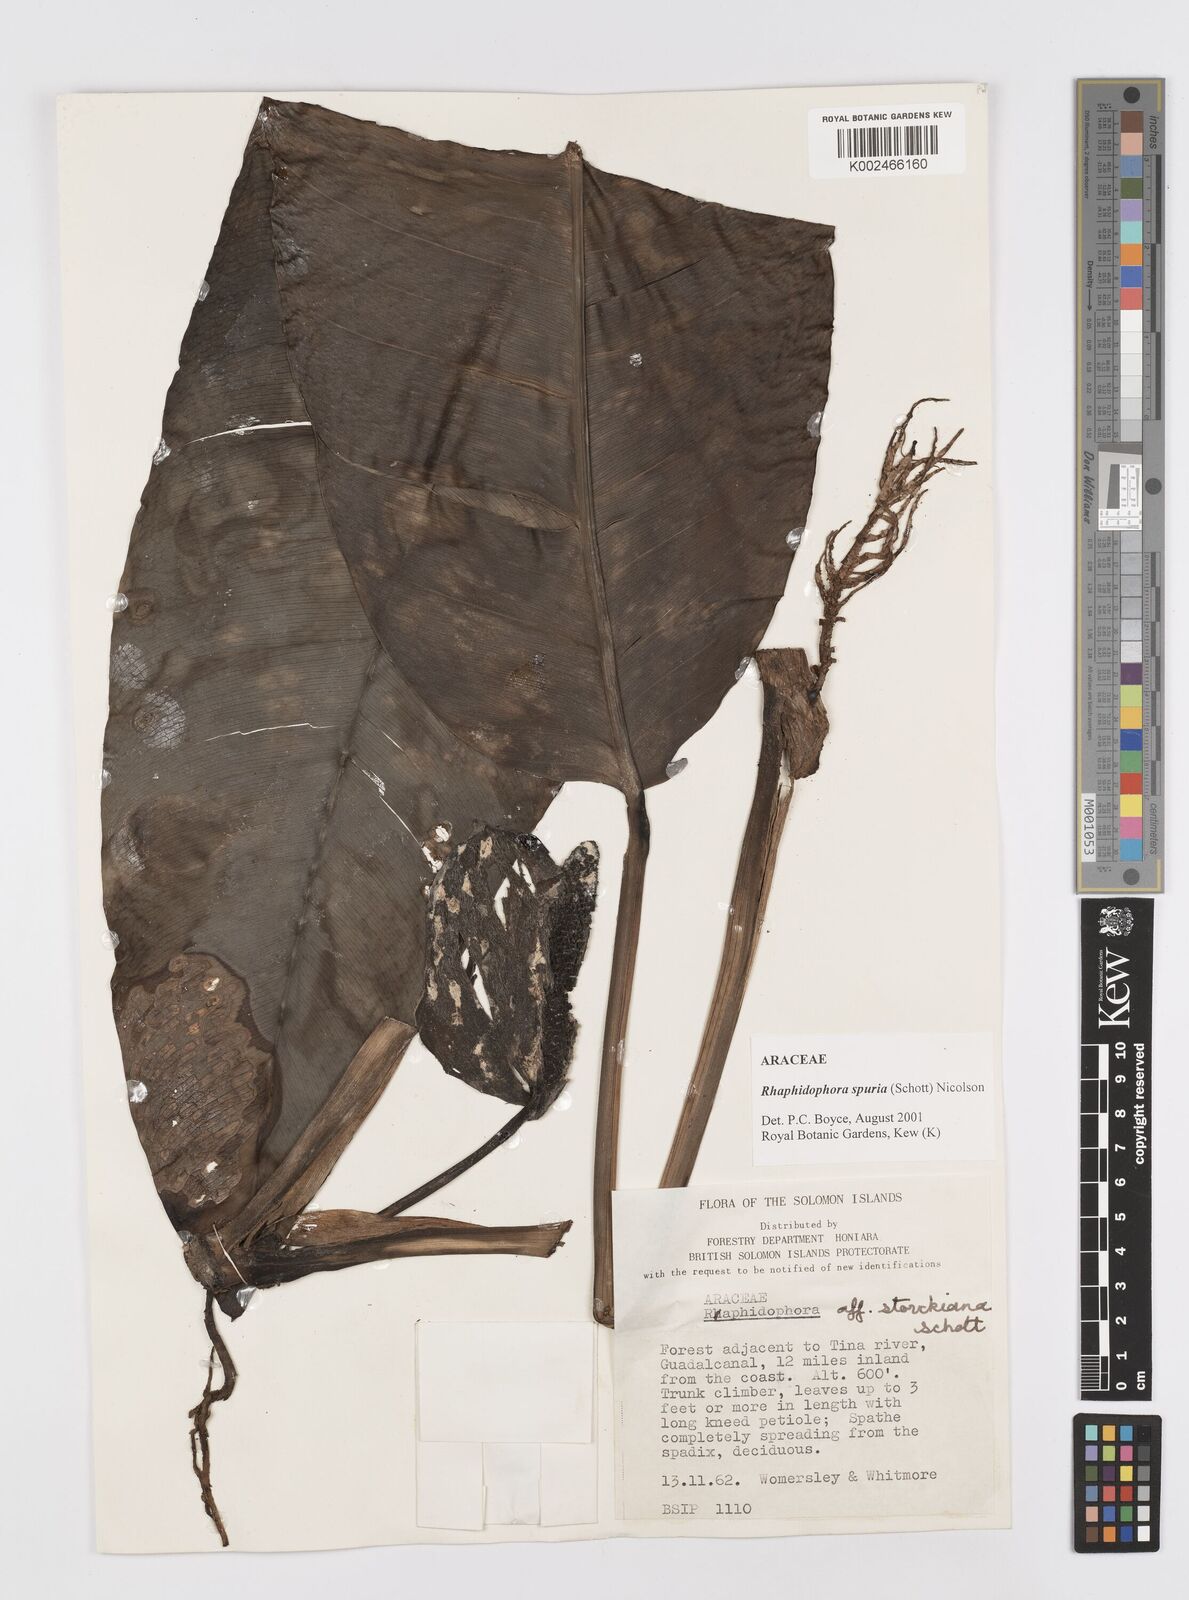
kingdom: Plantae
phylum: Tracheophyta
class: Liliopsida
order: Alismatales
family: Araceae
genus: Rhaphidophora
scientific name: Rhaphidophora spuria
